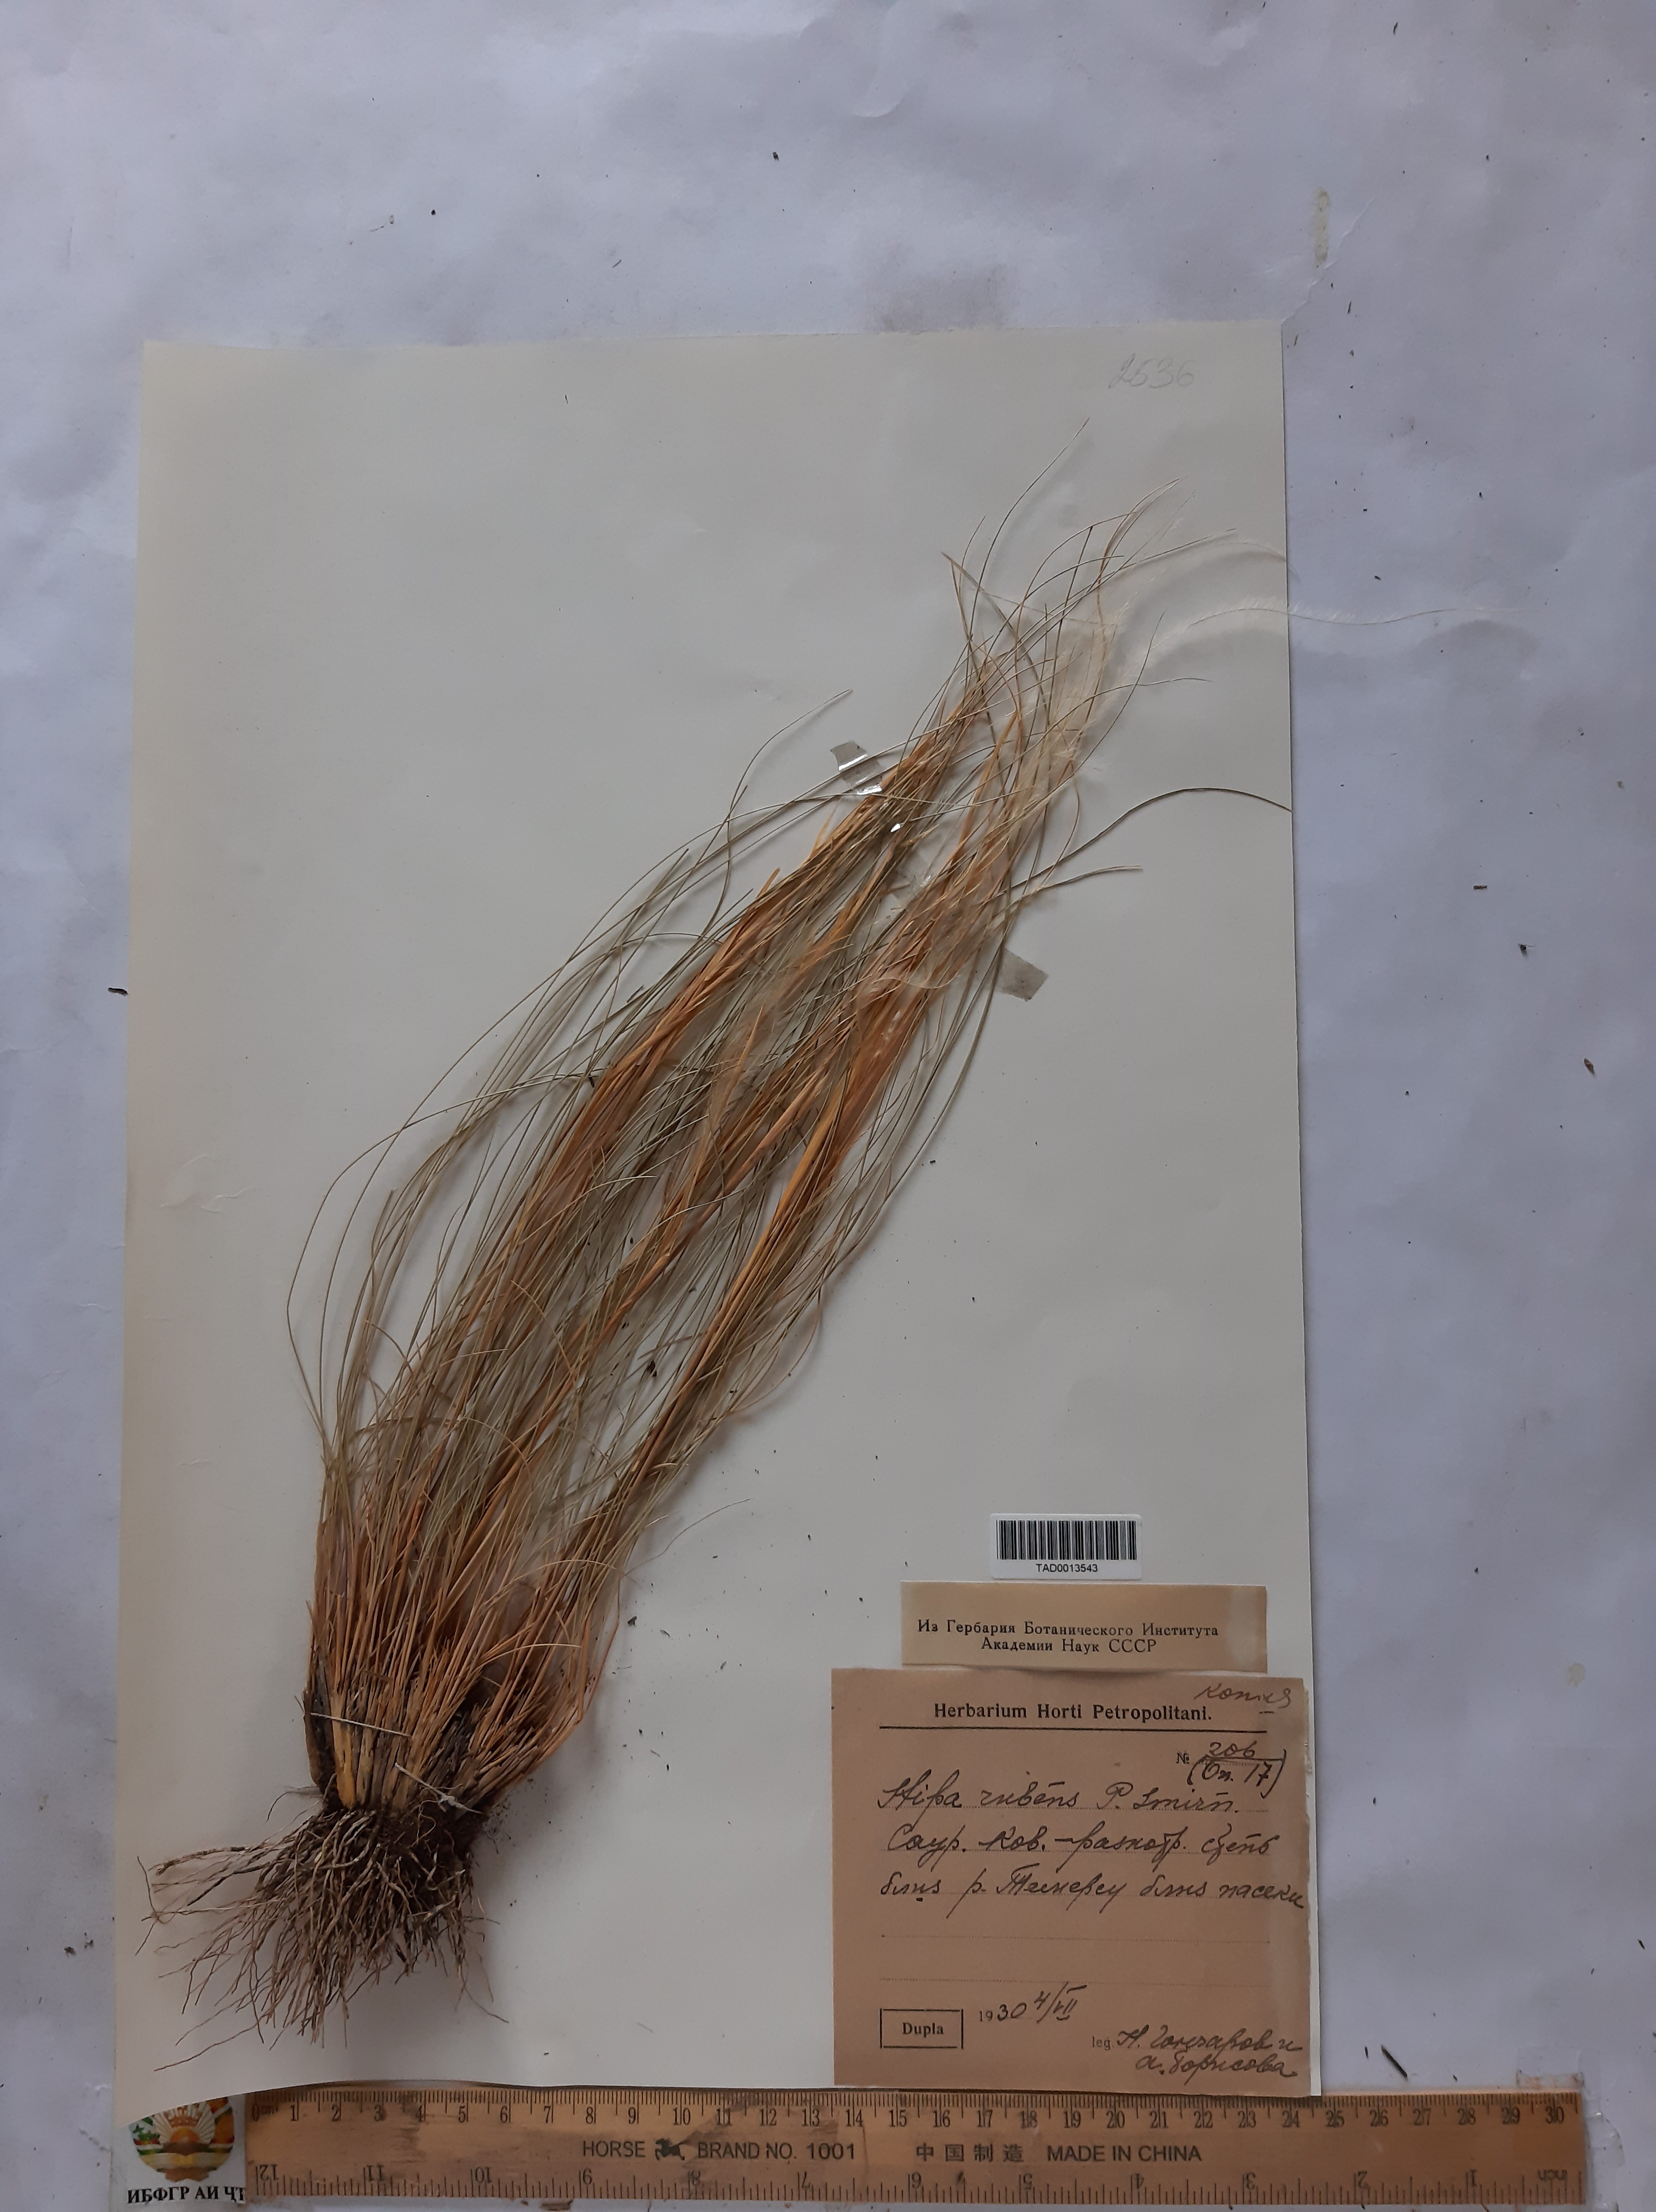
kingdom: Plantae
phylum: Tracheophyta
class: Liliopsida
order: Poales
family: Poaceae
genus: Stipa
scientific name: Stipa
